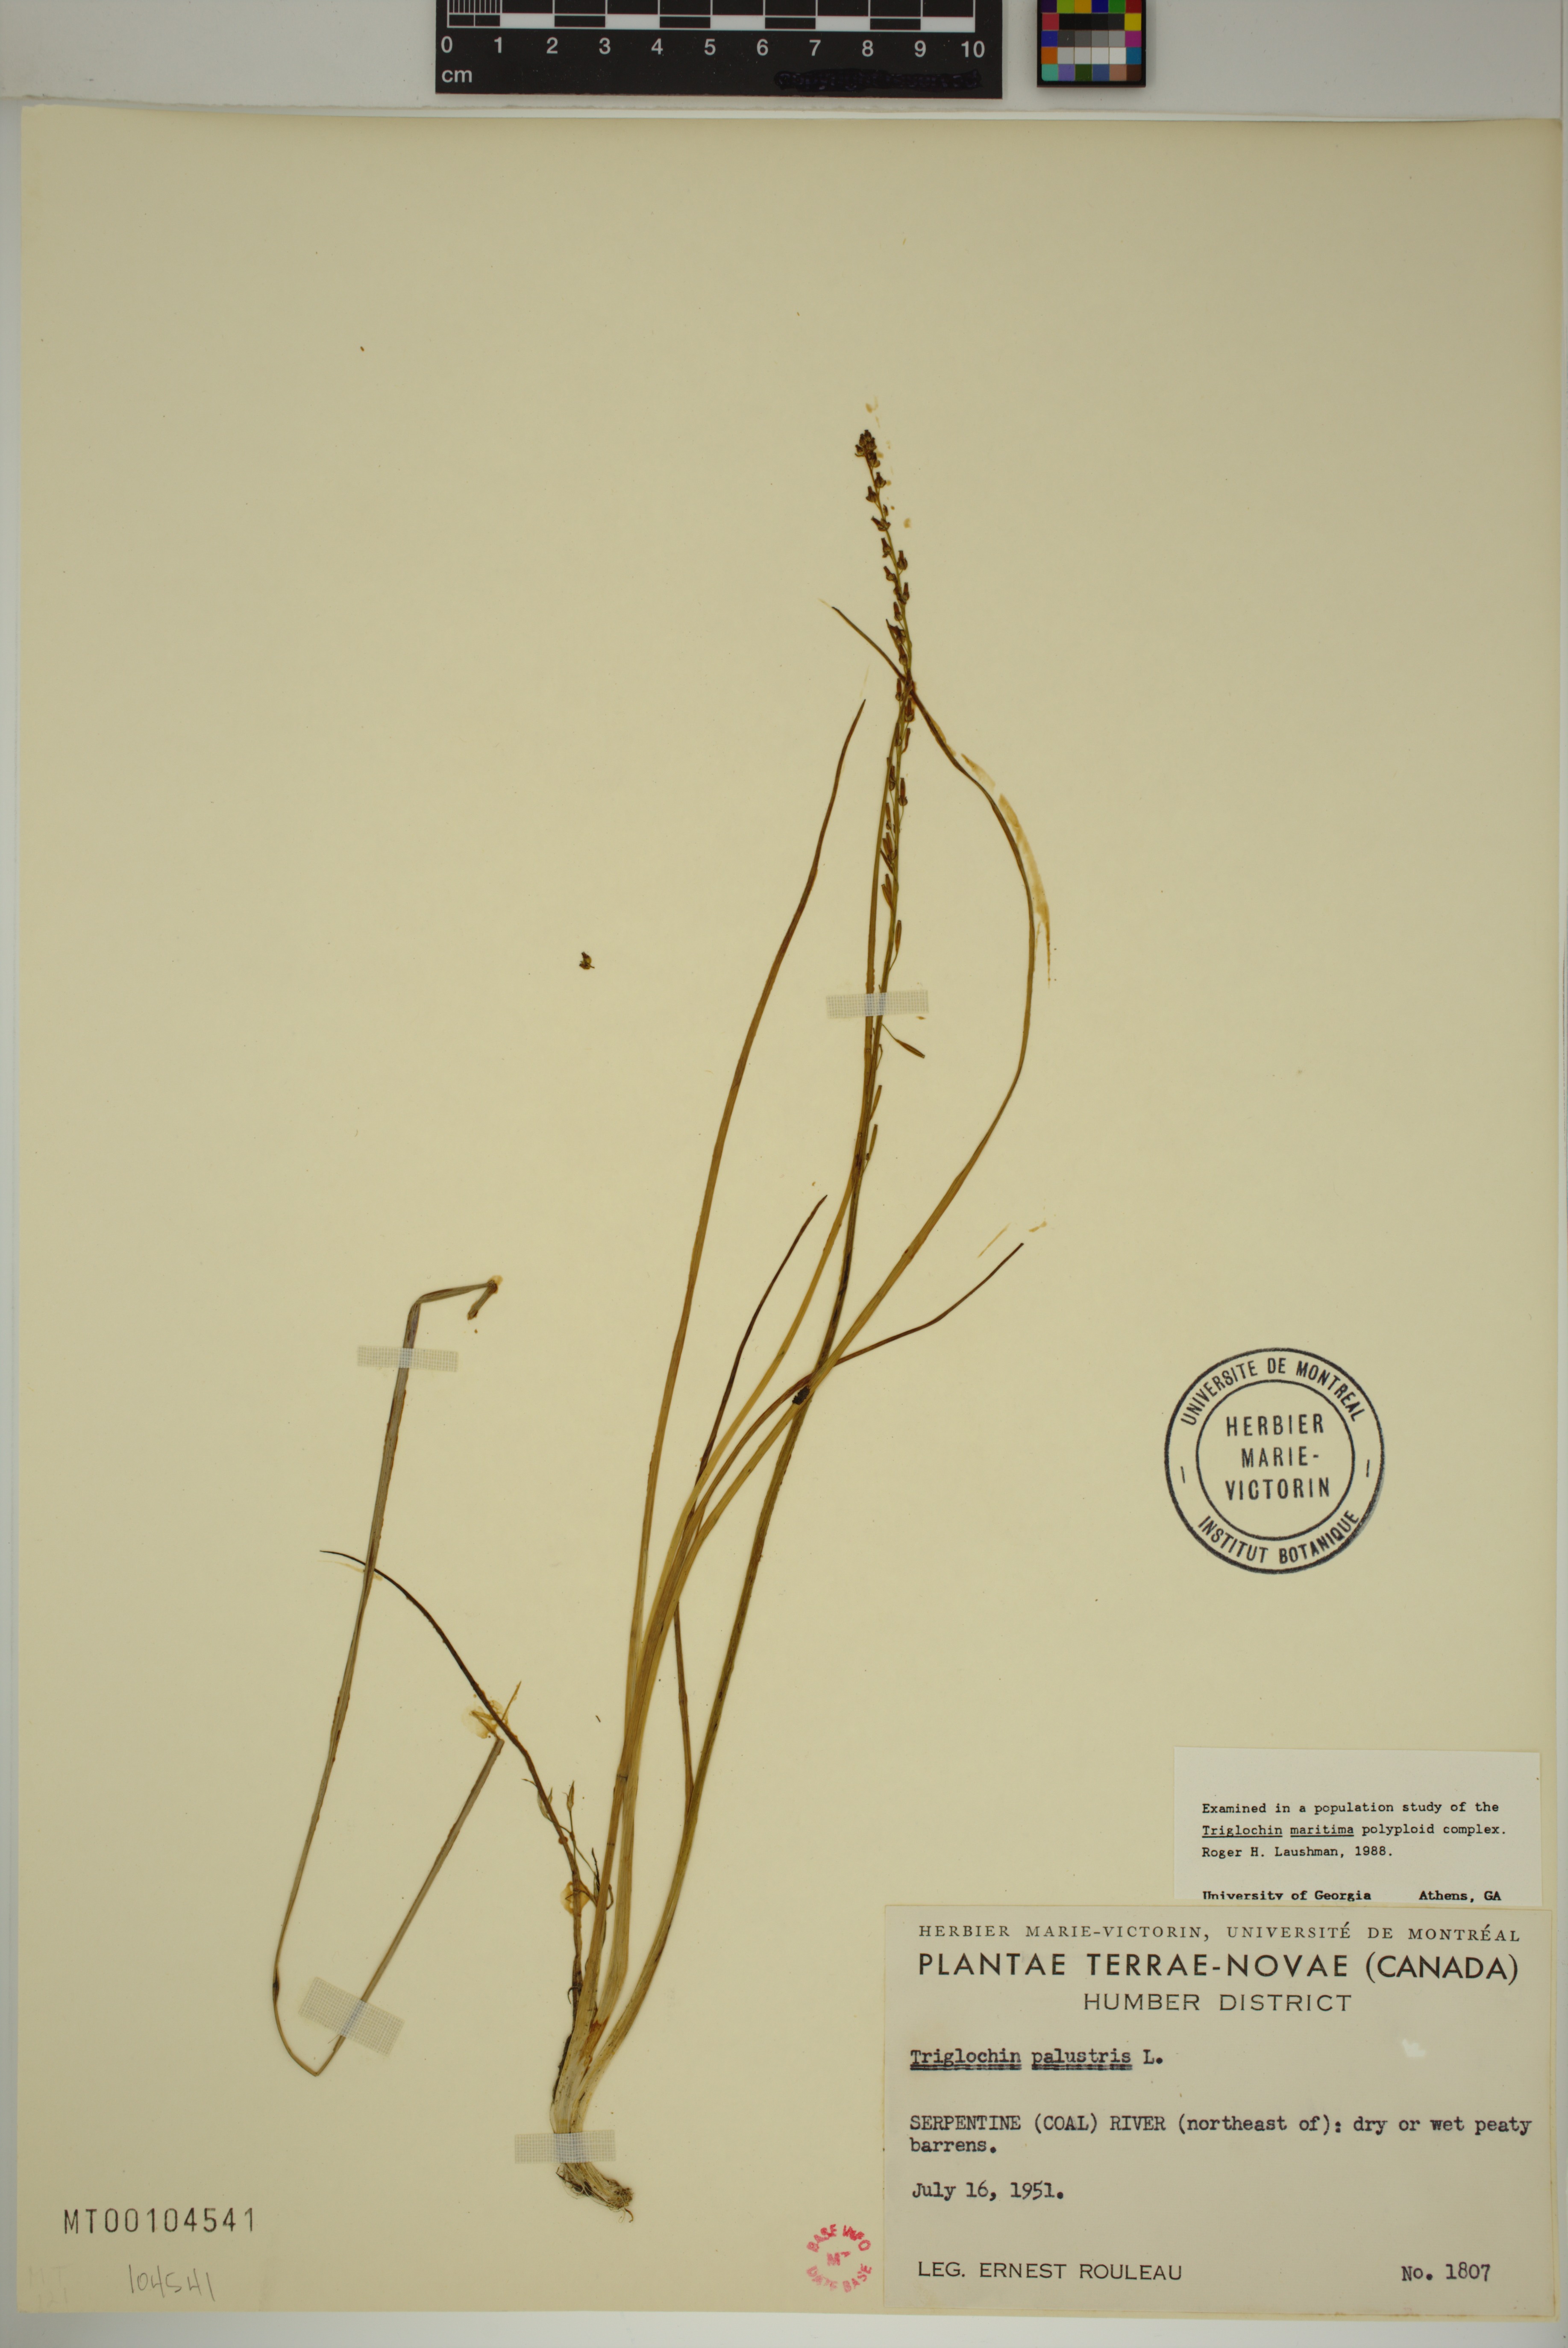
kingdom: Plantae
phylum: Tracheophyta
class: Liliopsida
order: Alismatales
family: Juncaginaceae
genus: Triglochin
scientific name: Triglochin palustris
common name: Marsh arrowgrass
